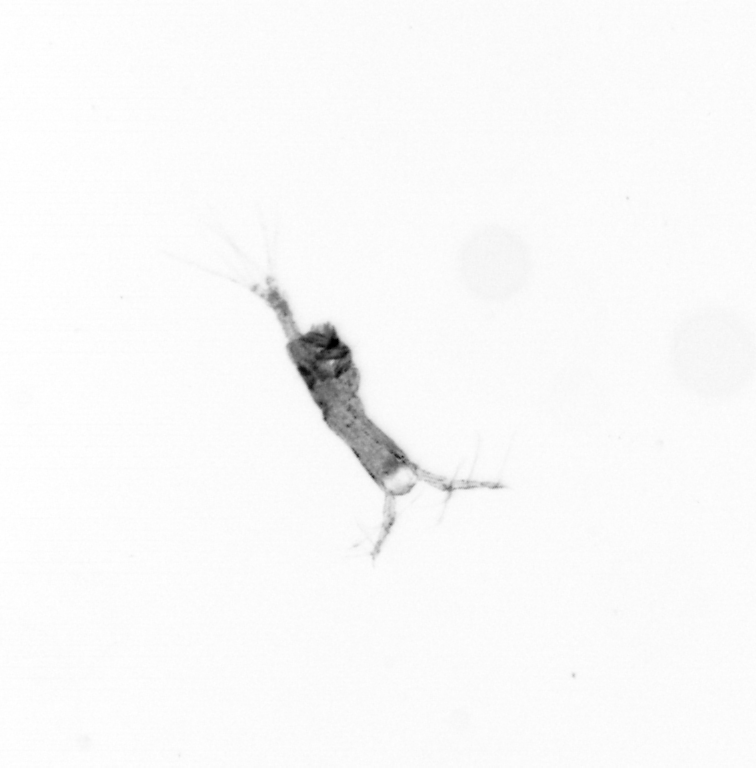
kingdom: Animalia
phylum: Arthropoda
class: Copepoda
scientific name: Copepoda
